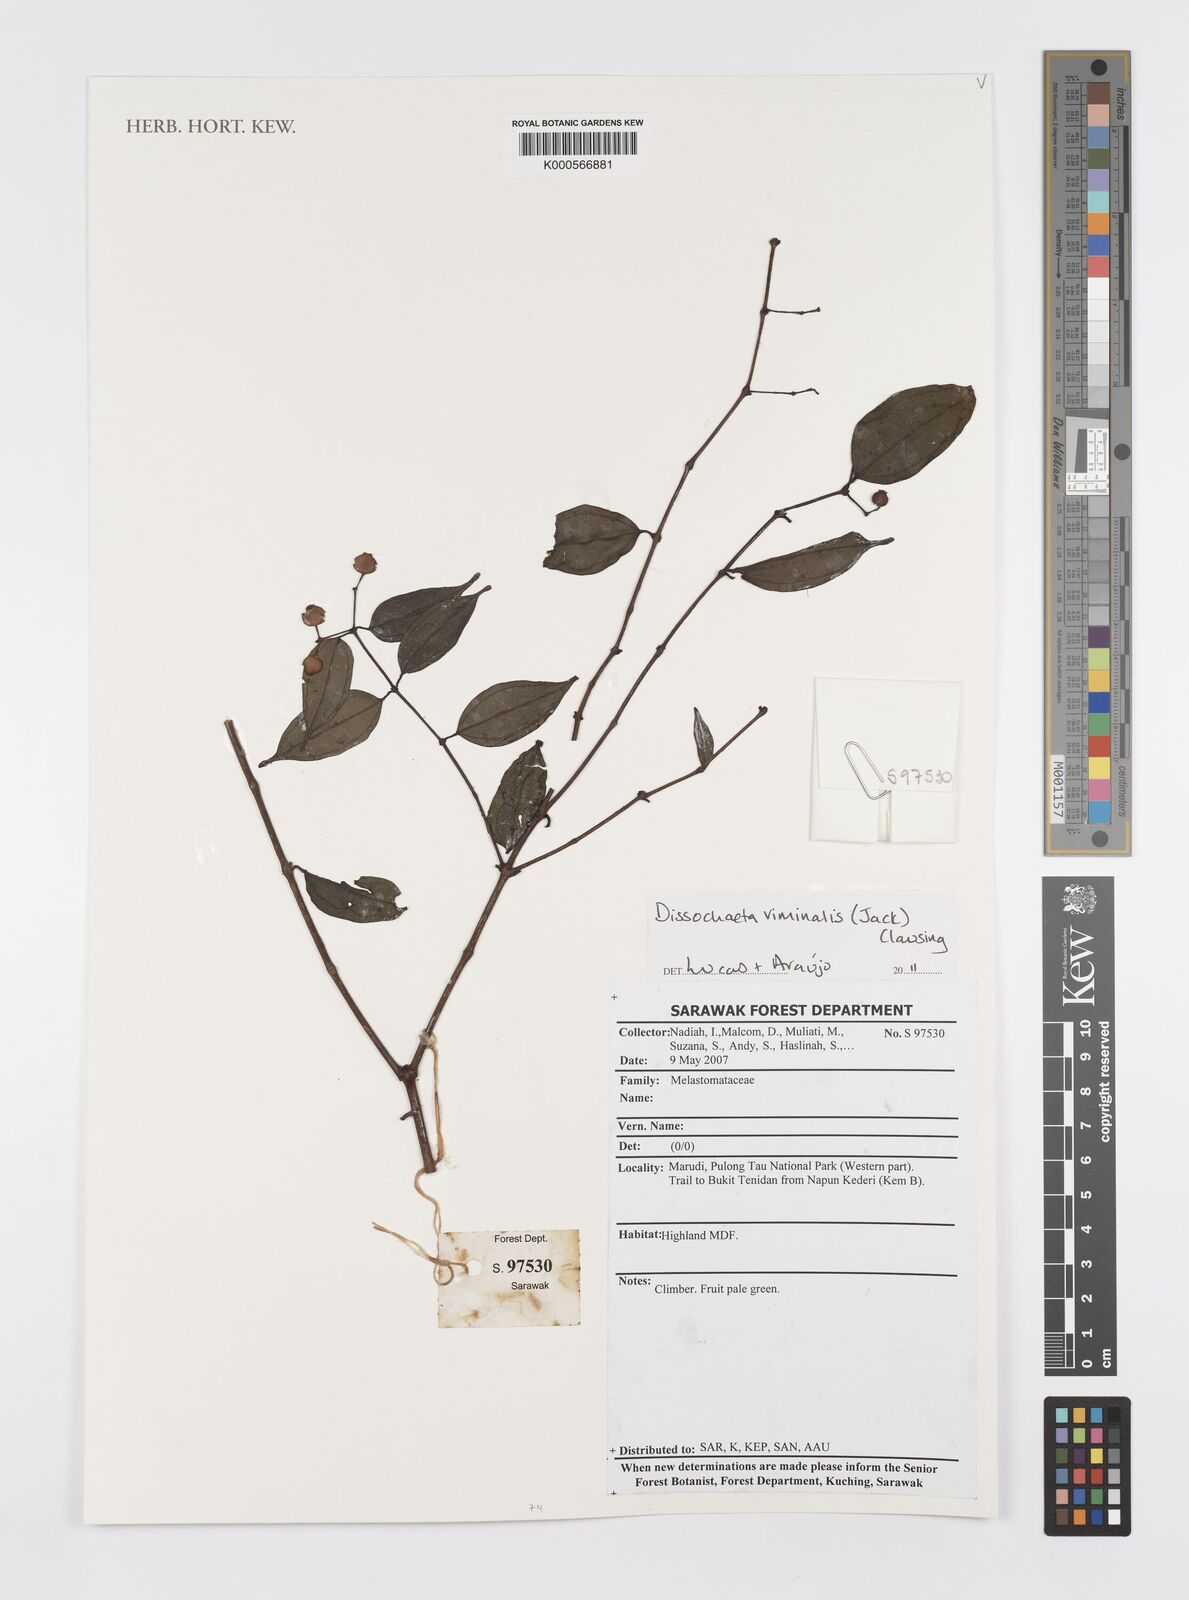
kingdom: Plantae
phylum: Tracheophyta
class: Magnoliopsida
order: Myrtales
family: Melastomataceae
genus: Diplectria
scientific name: Diplectria viminalis
